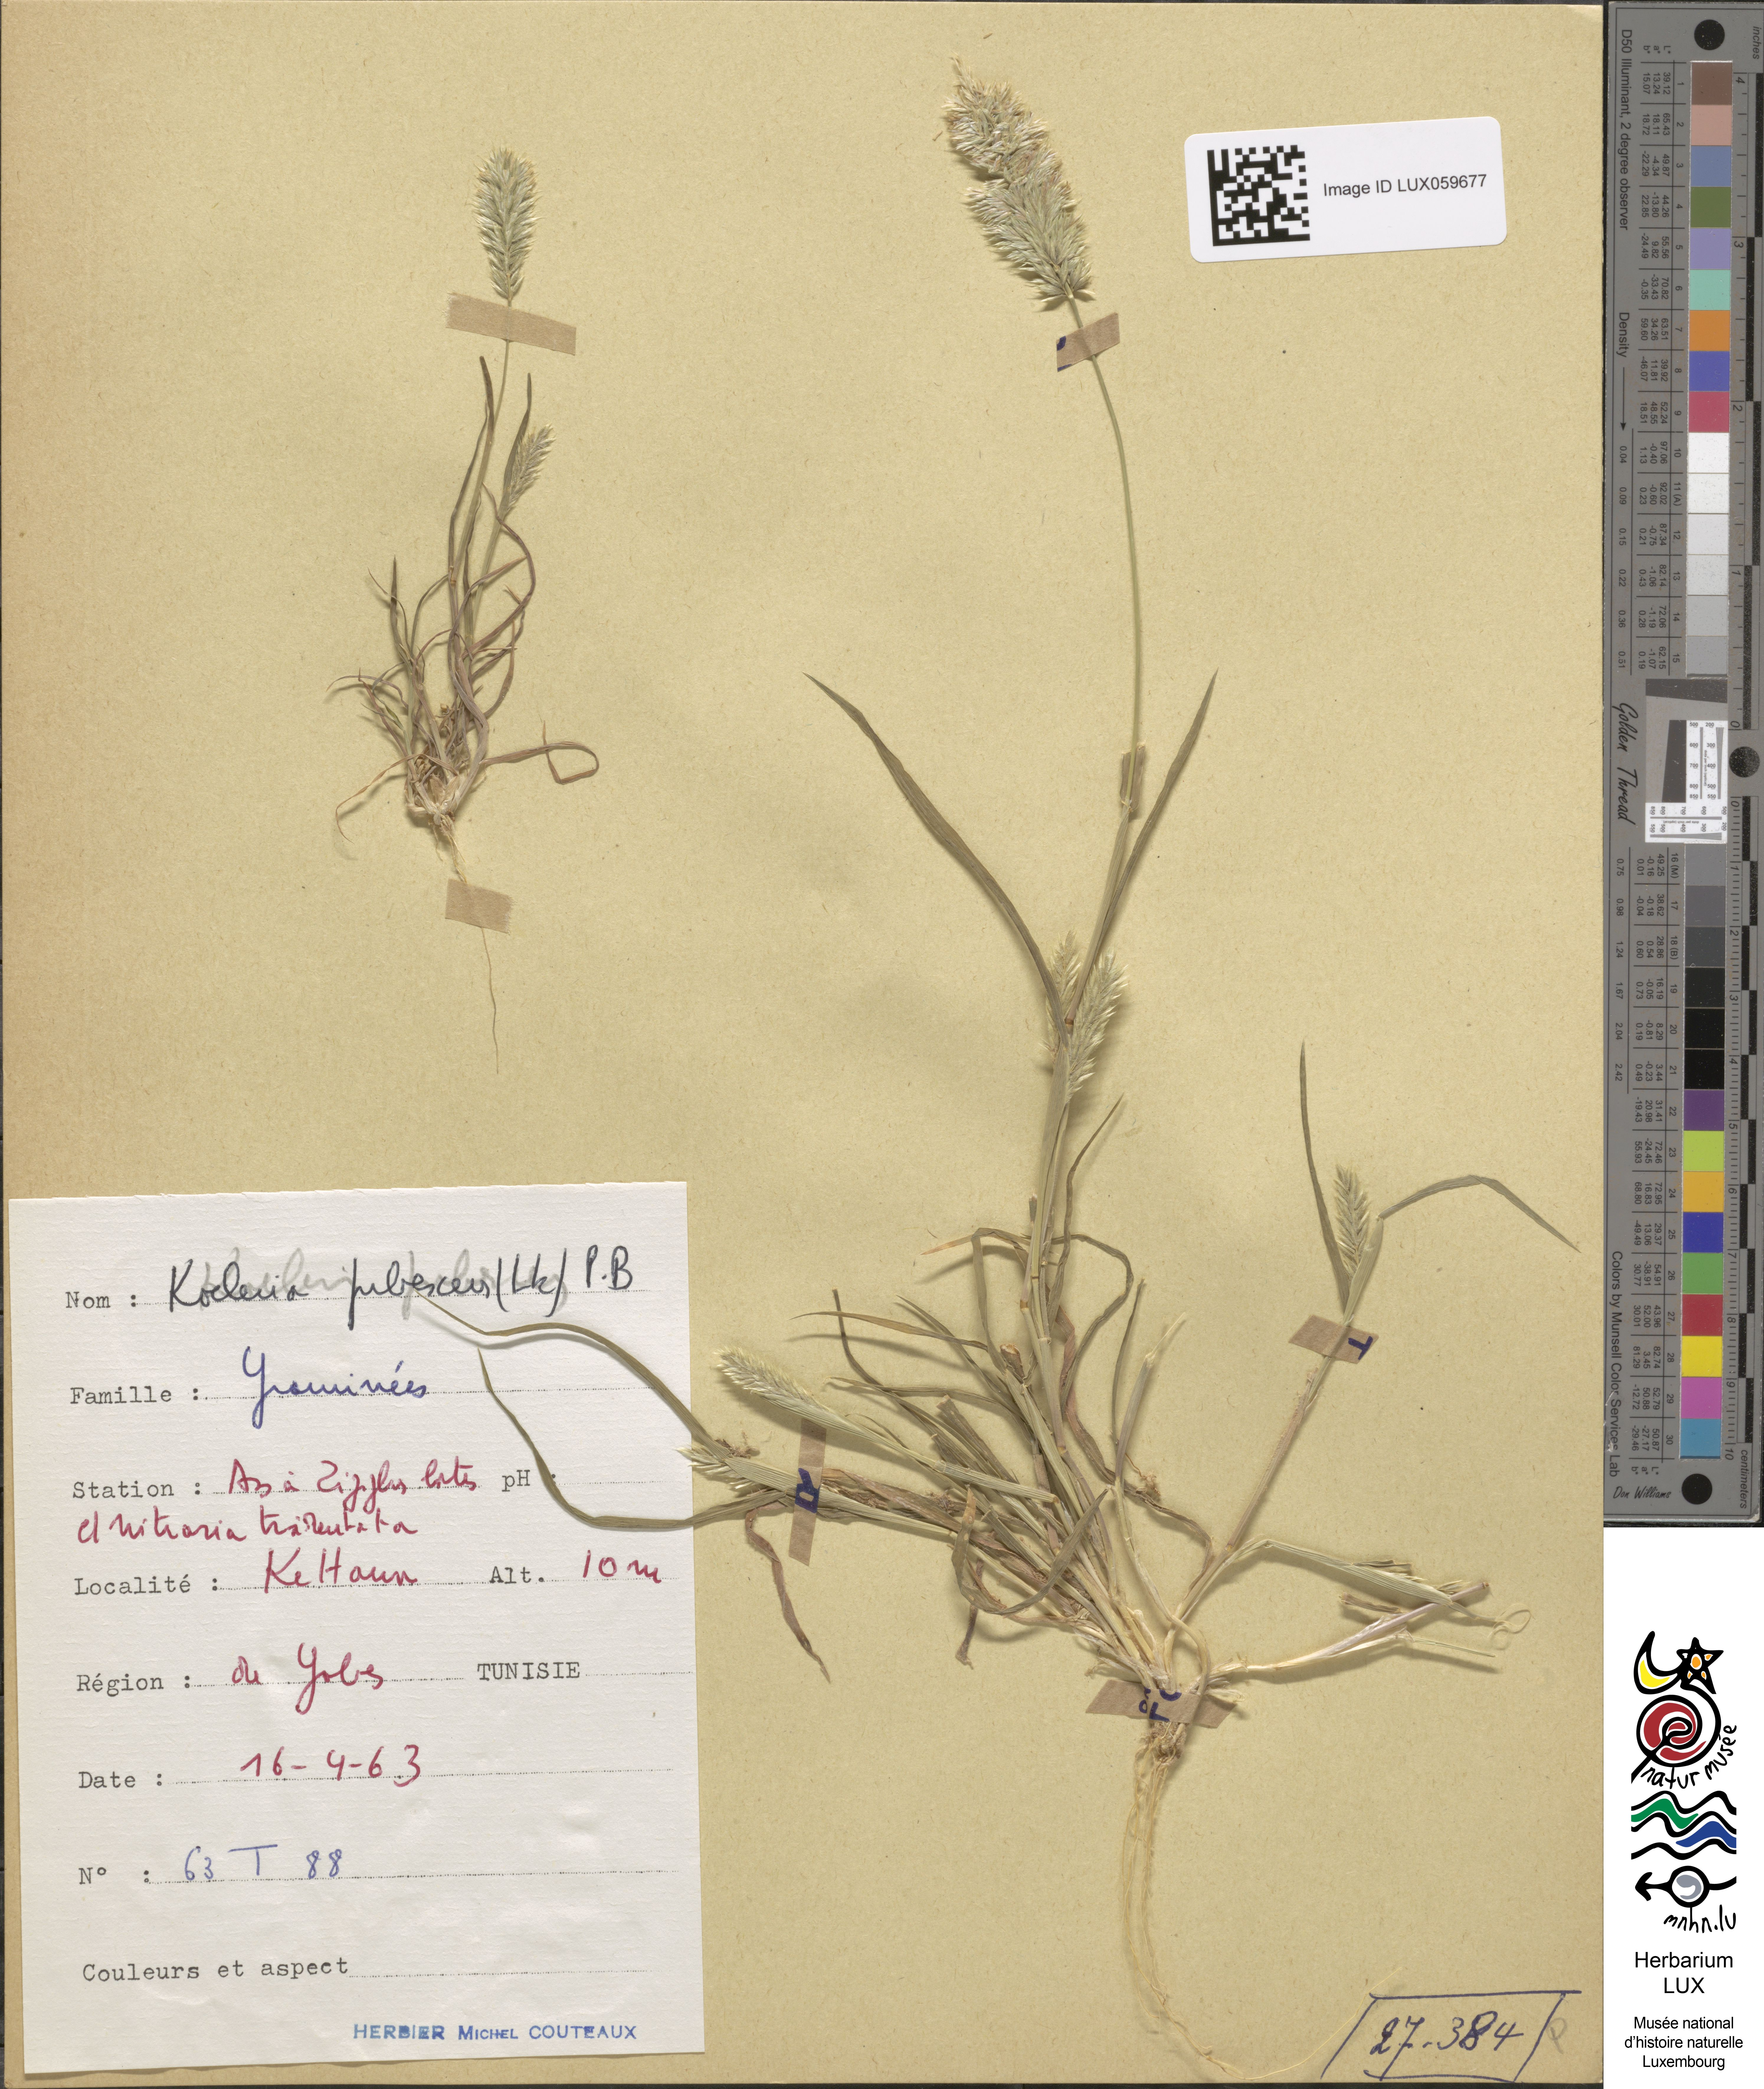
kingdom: Plantae
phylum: Tracheophyta
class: Liliopsida
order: Poales
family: Poaceae
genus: Rostraria
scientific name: Rostraria litorea
